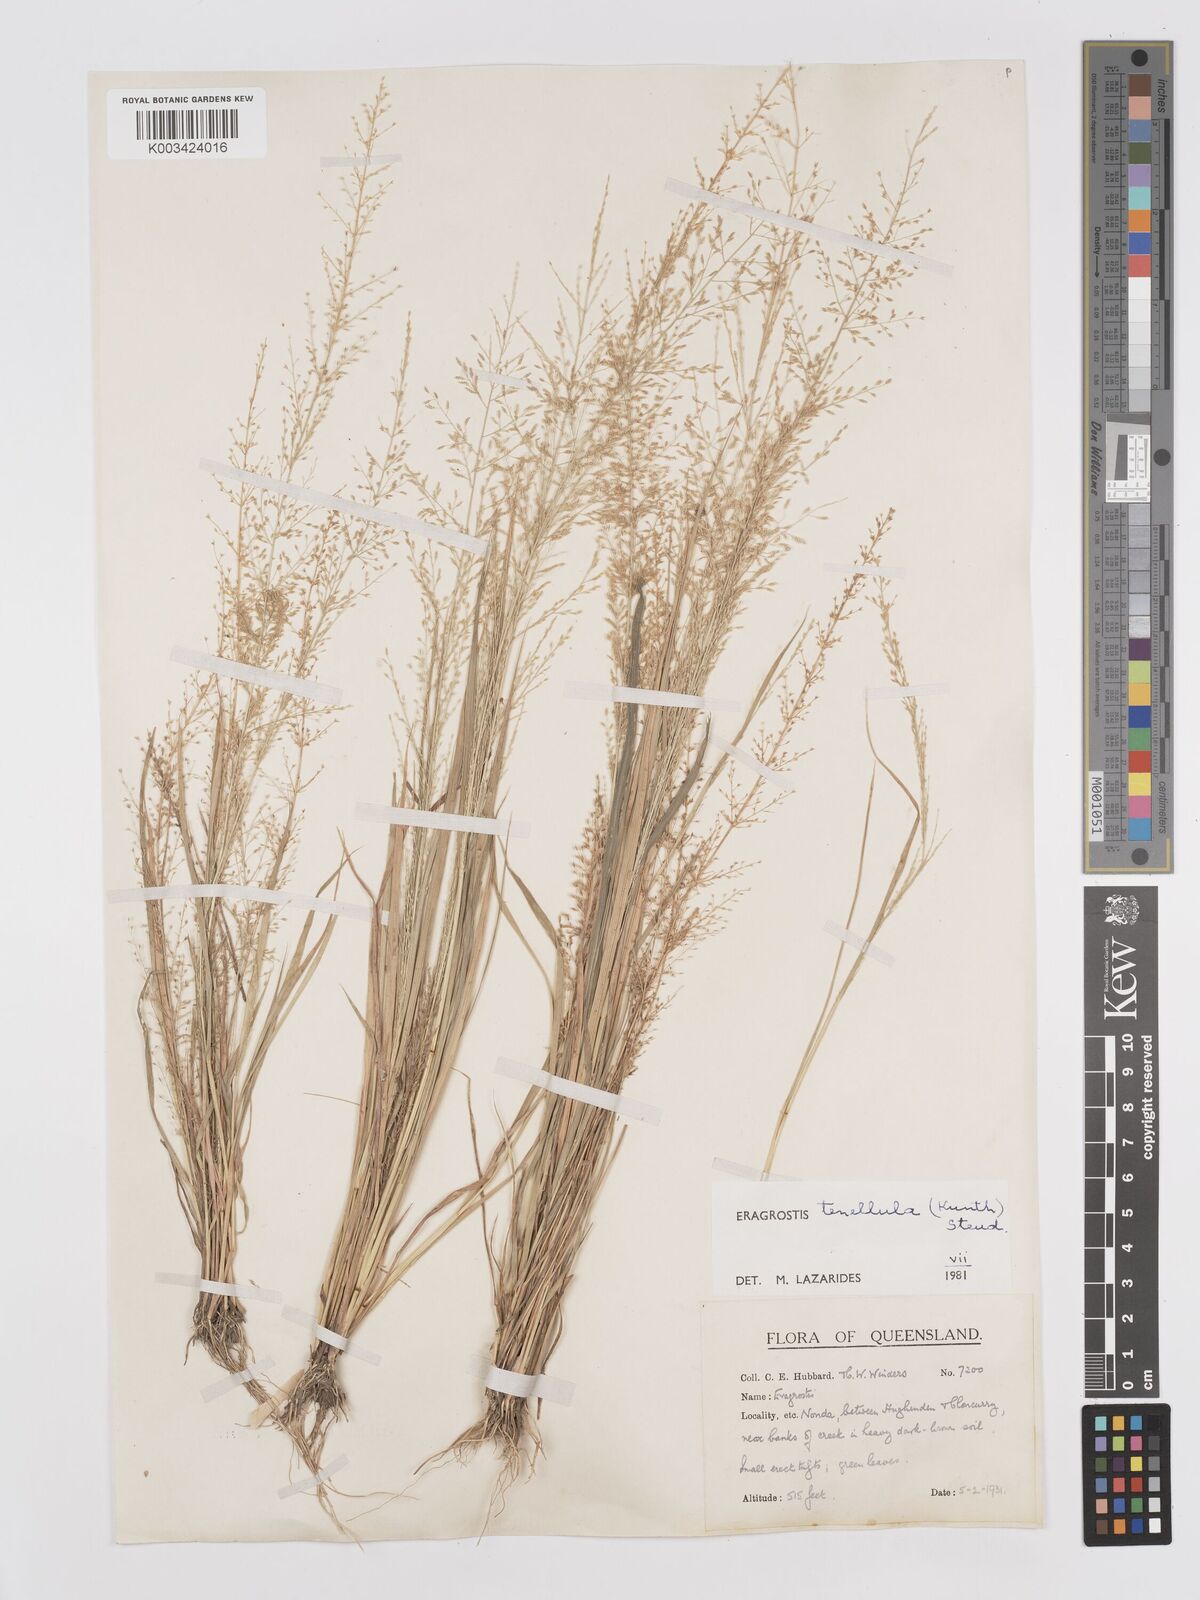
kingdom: Plantae
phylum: Tracheophyta
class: Liliopsida
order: Poales
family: Poaceae
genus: Eragrostis
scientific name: Eragrostis tenellula
